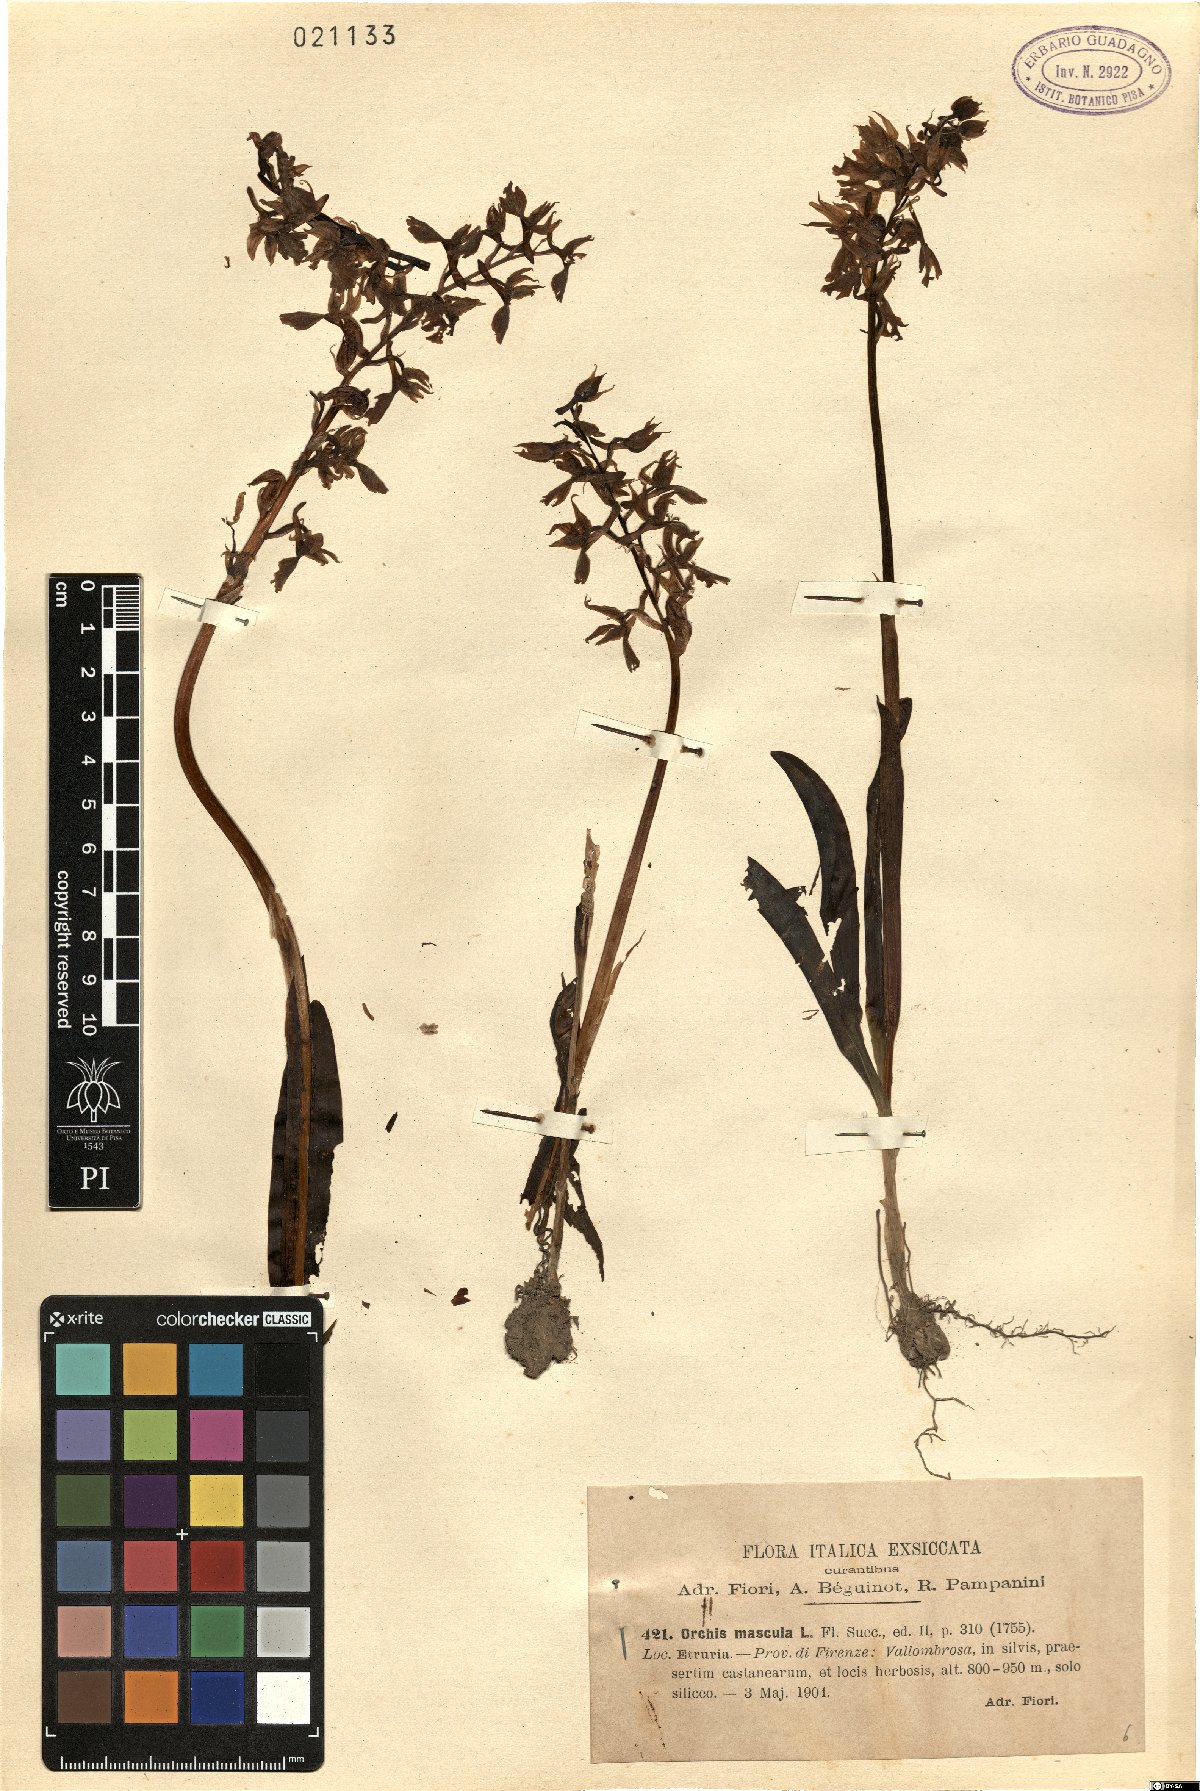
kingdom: Plantae
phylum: Tracheophyta
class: Liliopsida
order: Asparagales
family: Orchidaceae
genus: Orchis
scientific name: Orchis mascula
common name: Early-purple orchid
